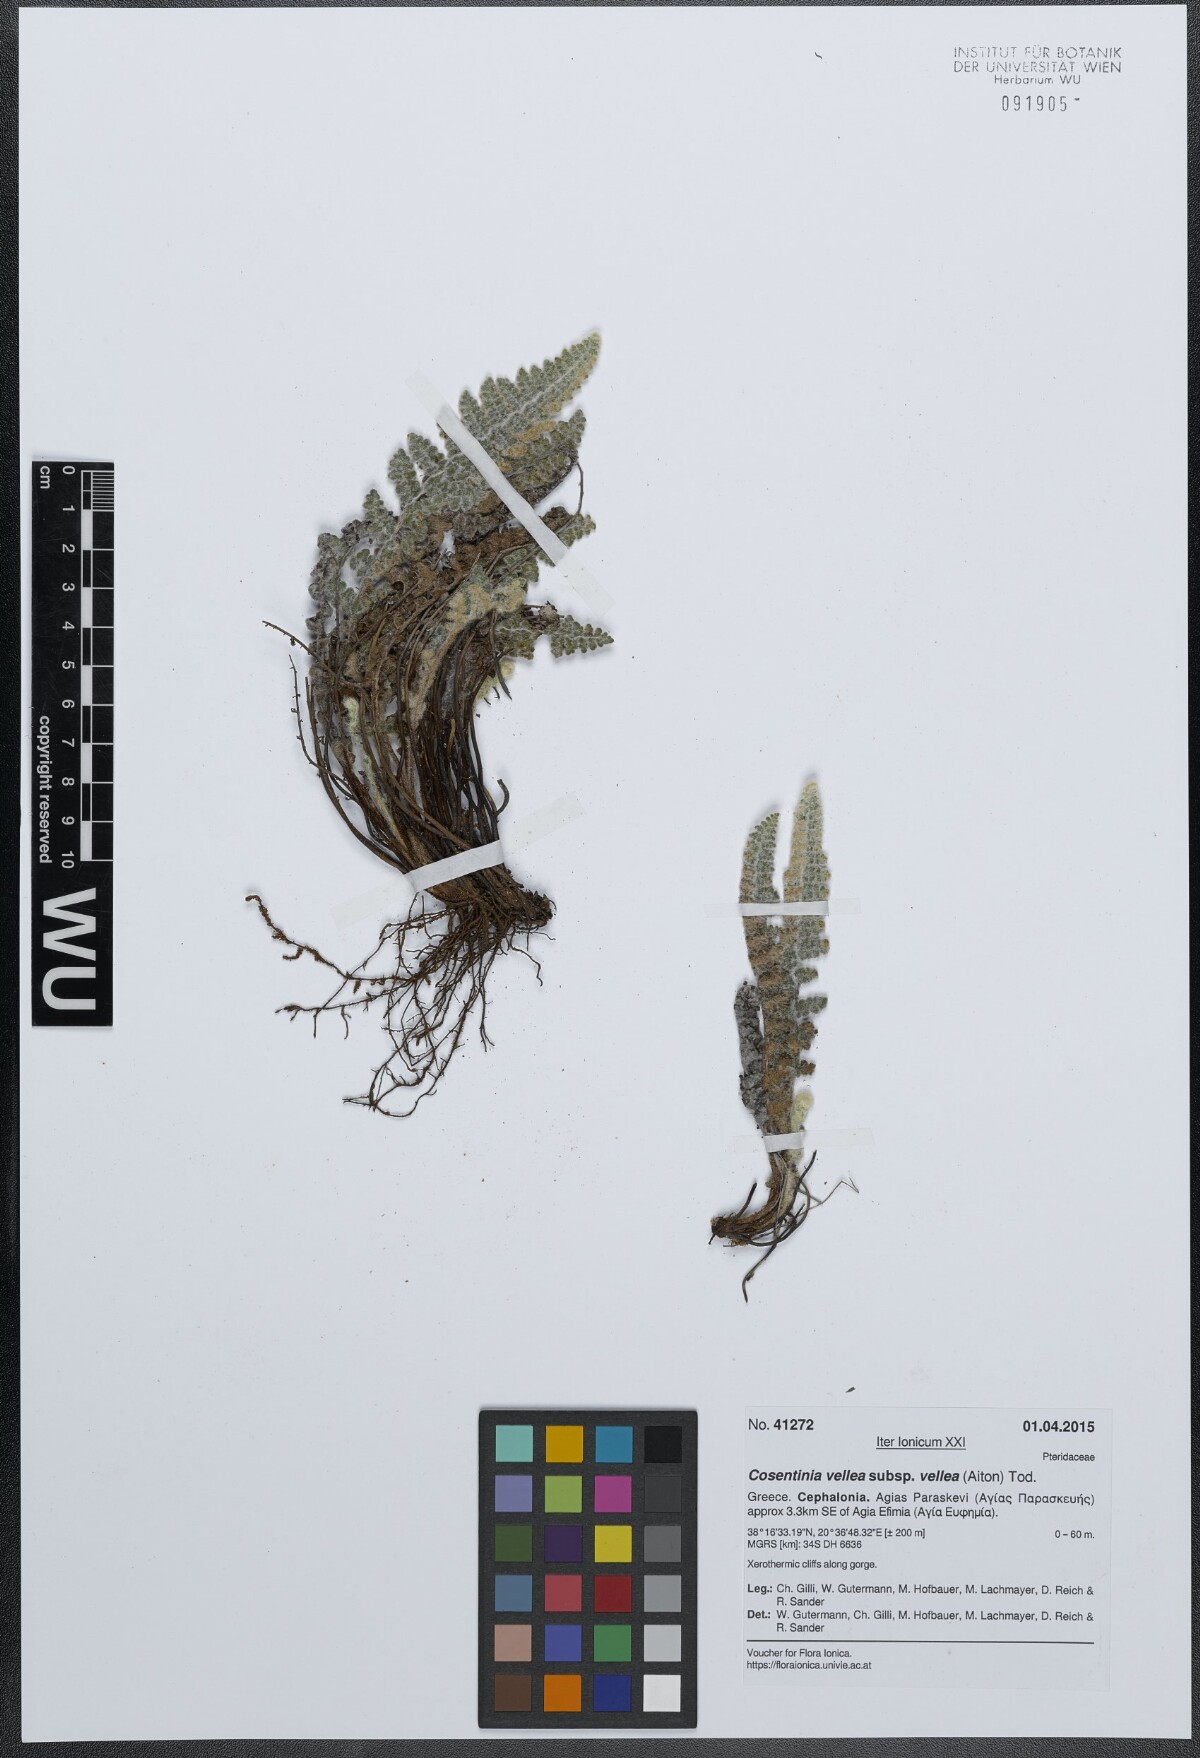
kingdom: Plantae
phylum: Tracheophyta
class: Polypodiopsida
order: Polypodiales
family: Pteridaceae
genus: Cosentinia
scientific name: Cosentinia vellea
